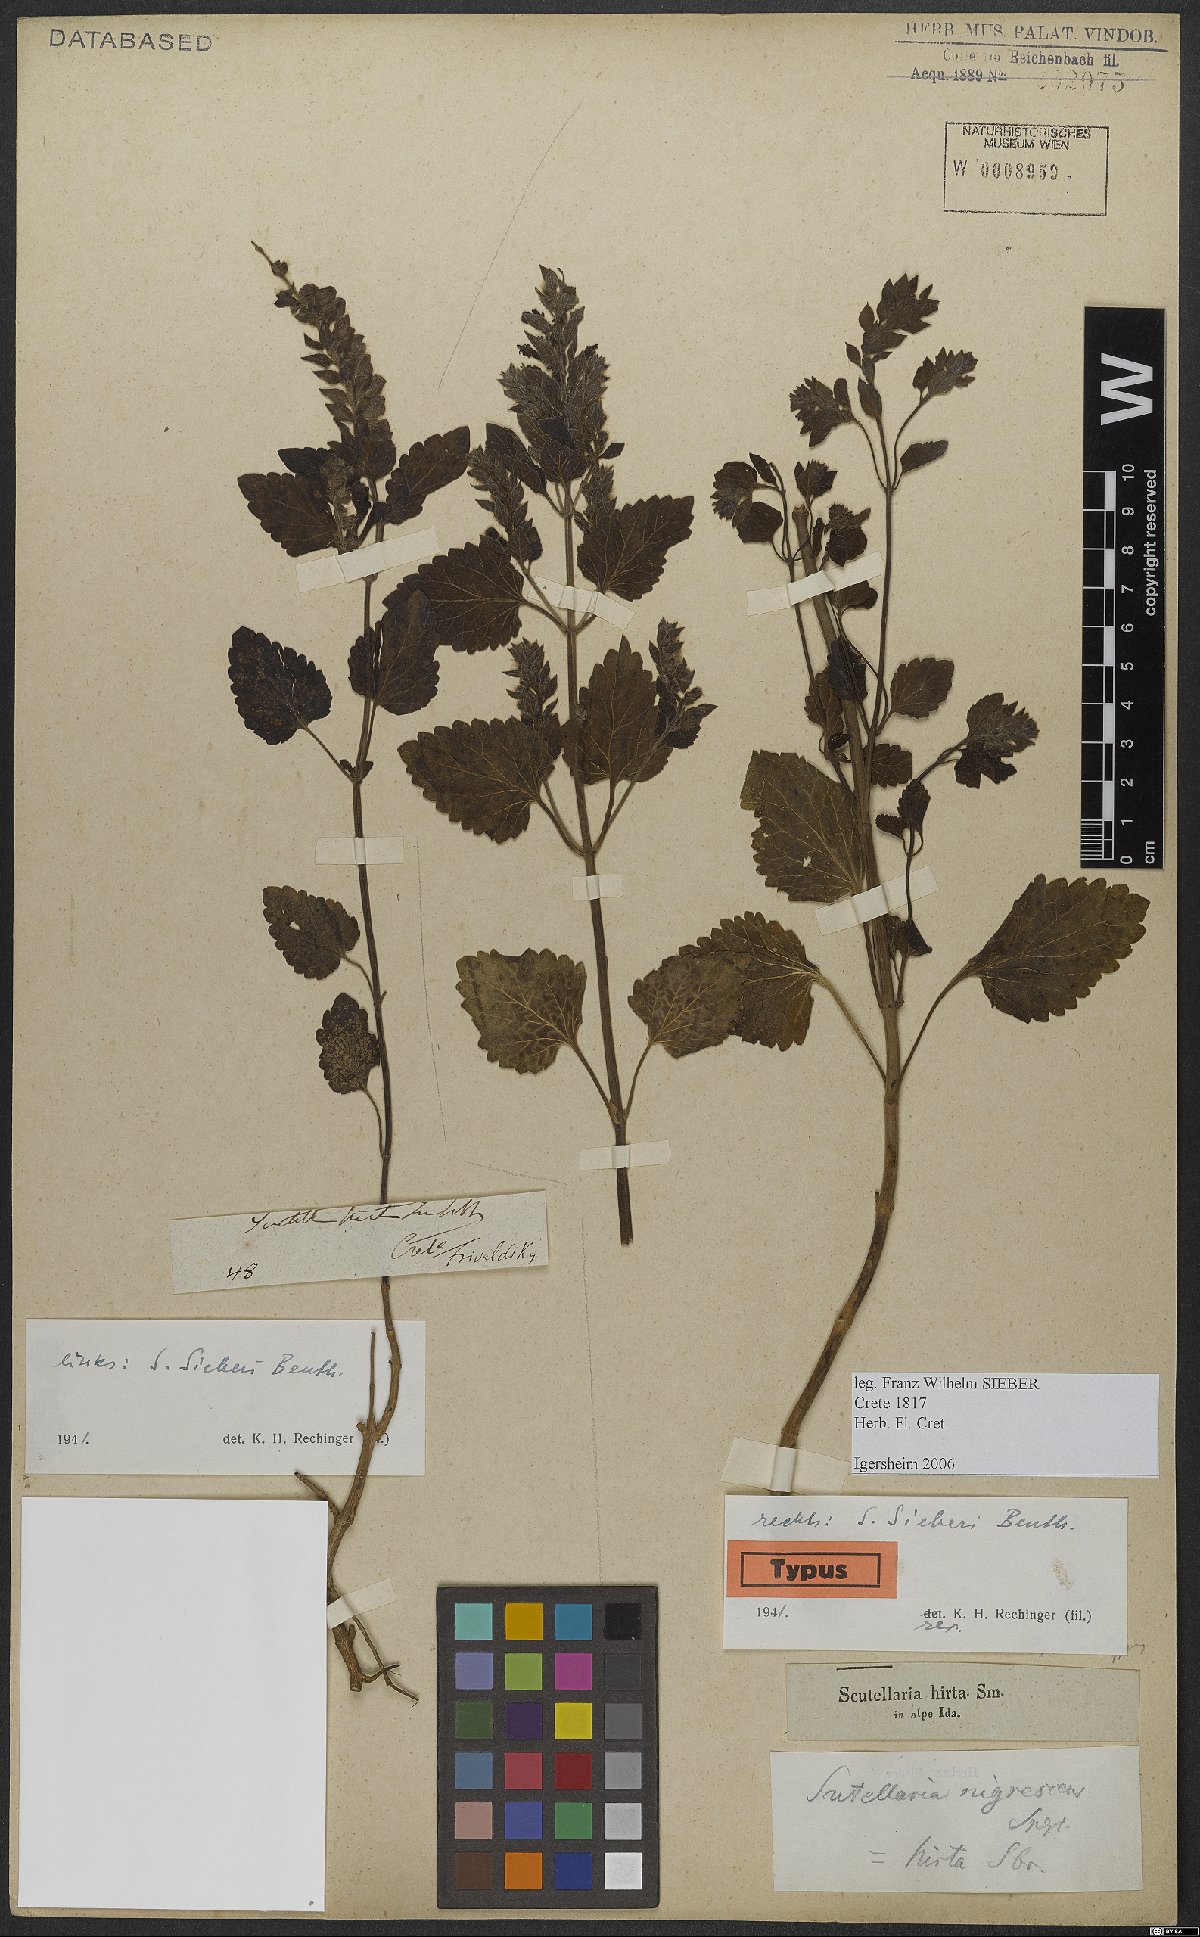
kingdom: Plantae
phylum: Tracheophyta
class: Magnoliopsida
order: Lamiales
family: Lamiaceae
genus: Scutellaria
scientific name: Scutellaria sieberi
